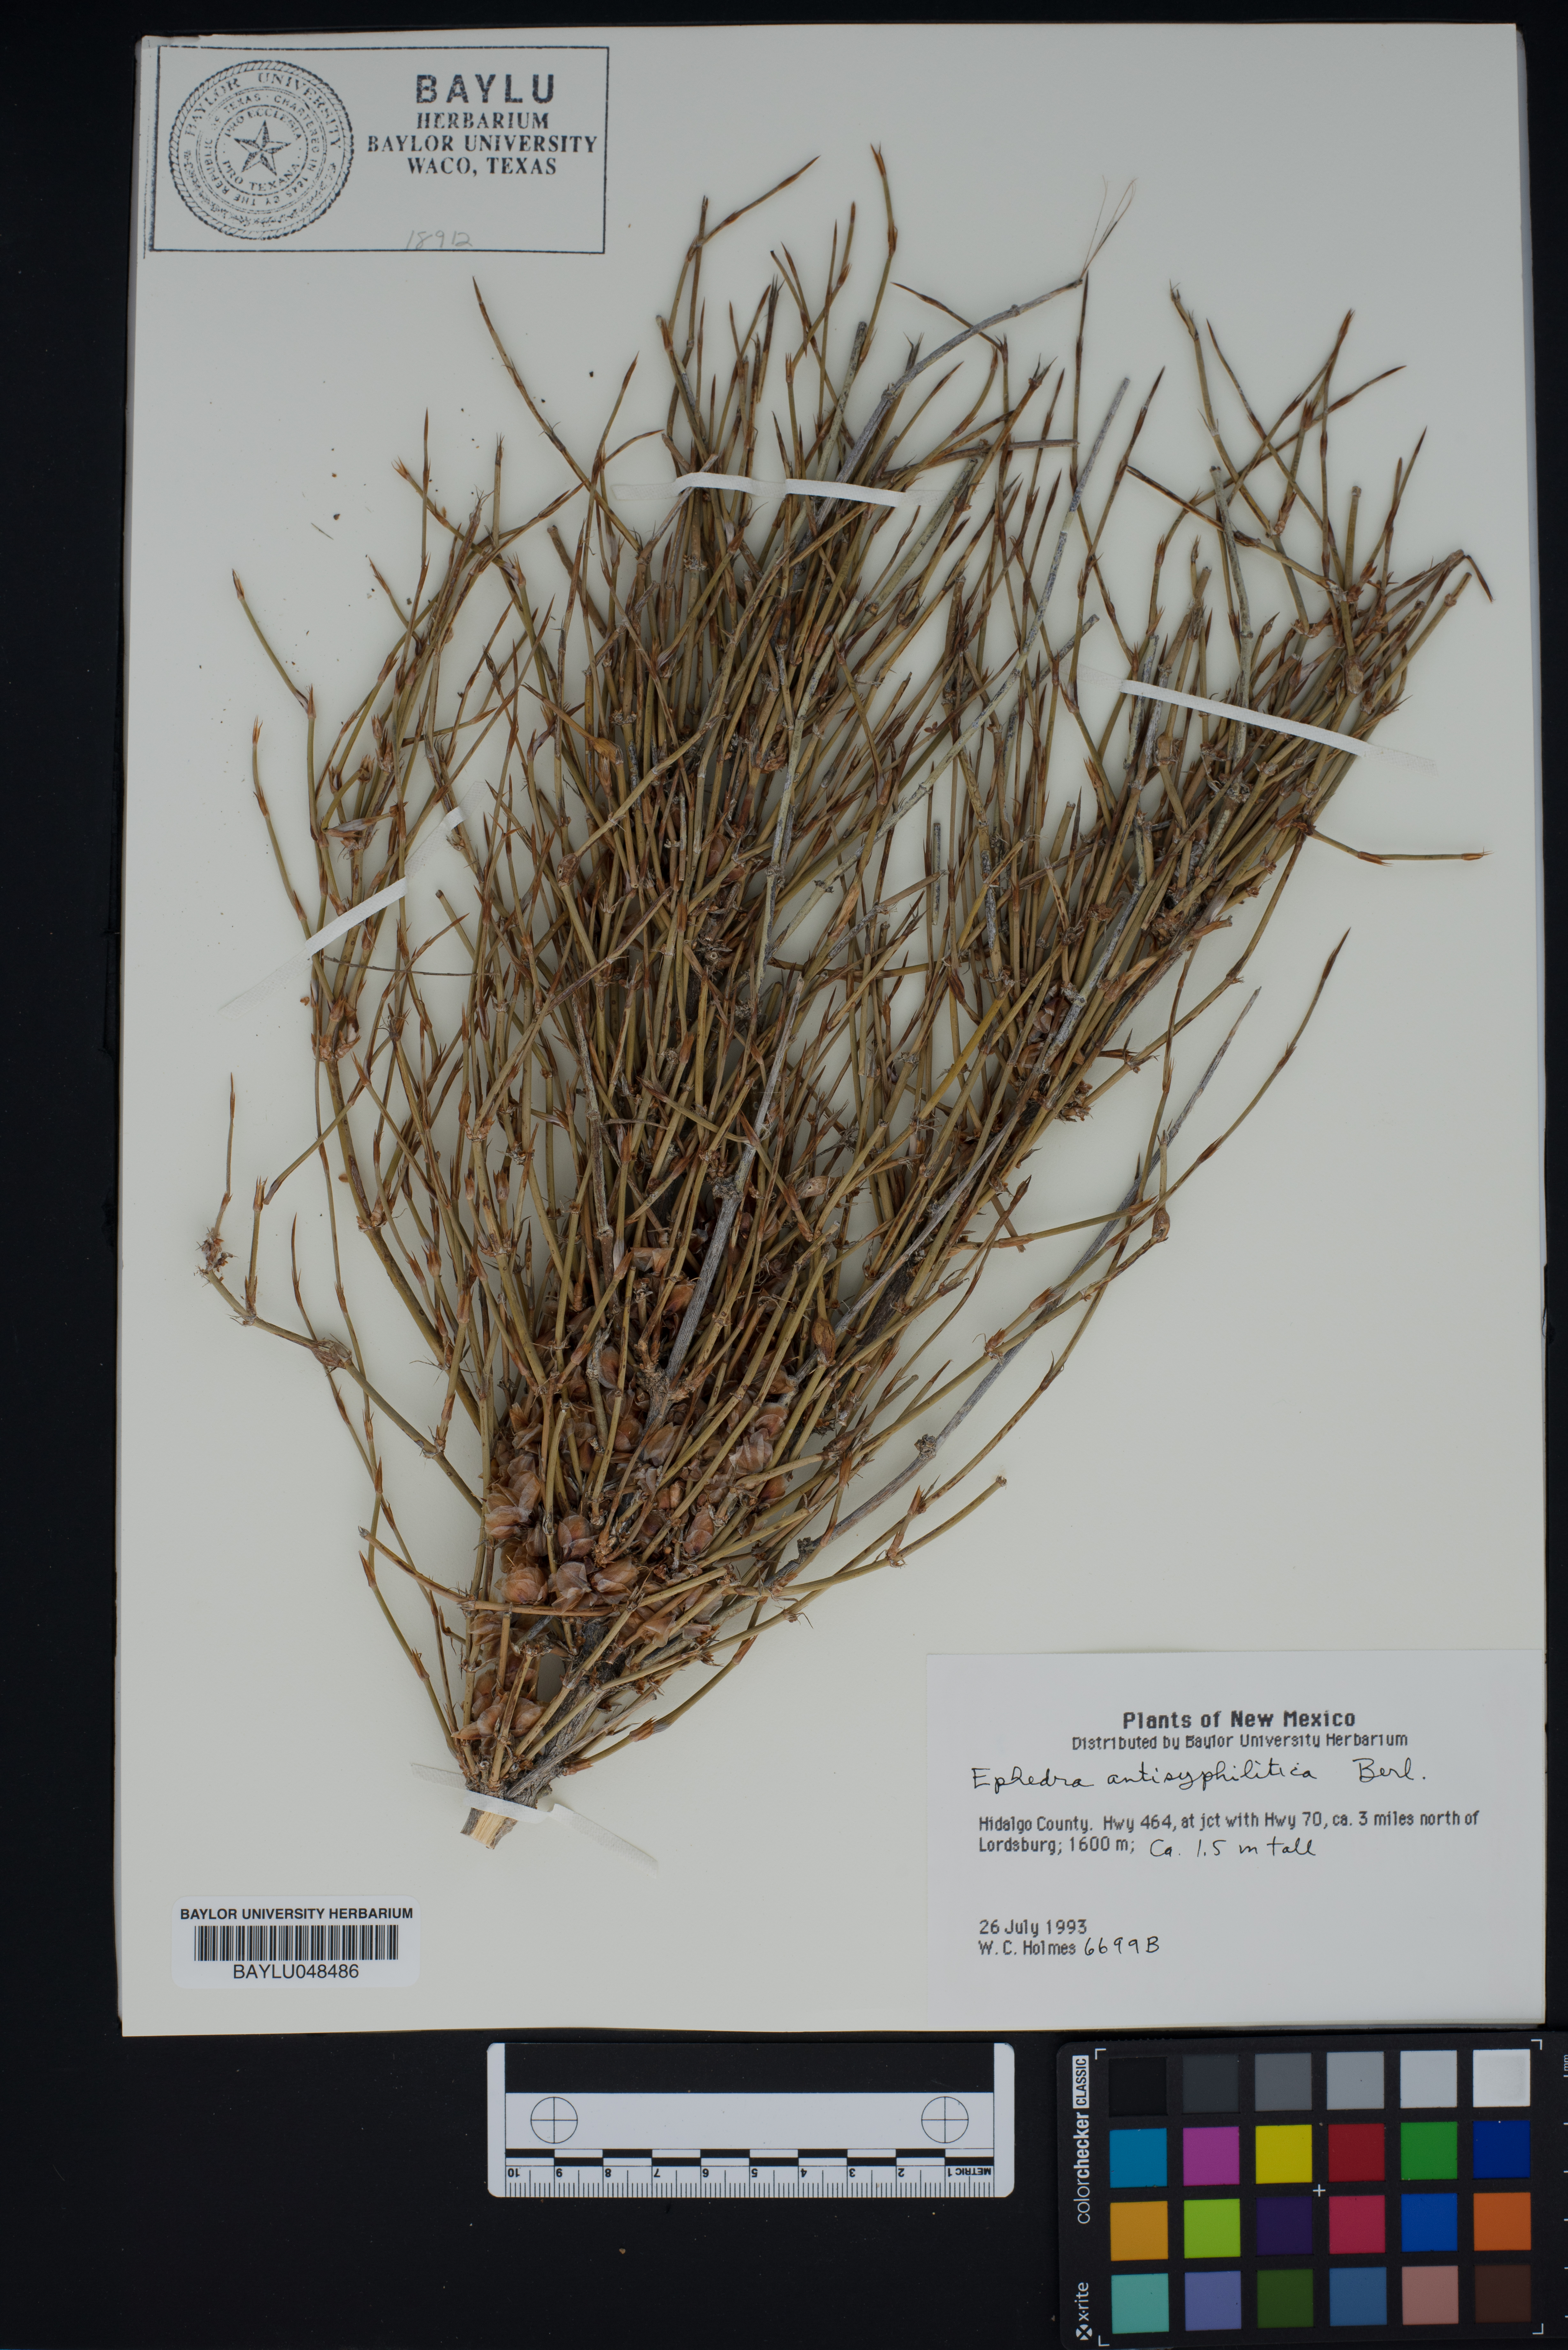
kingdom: Plantae
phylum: Tracheophyta
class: Gnetopsida
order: Ephedrales
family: Ephedraceae
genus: Ephedra
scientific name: Ephedra antisyphilitica
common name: Clipweed
